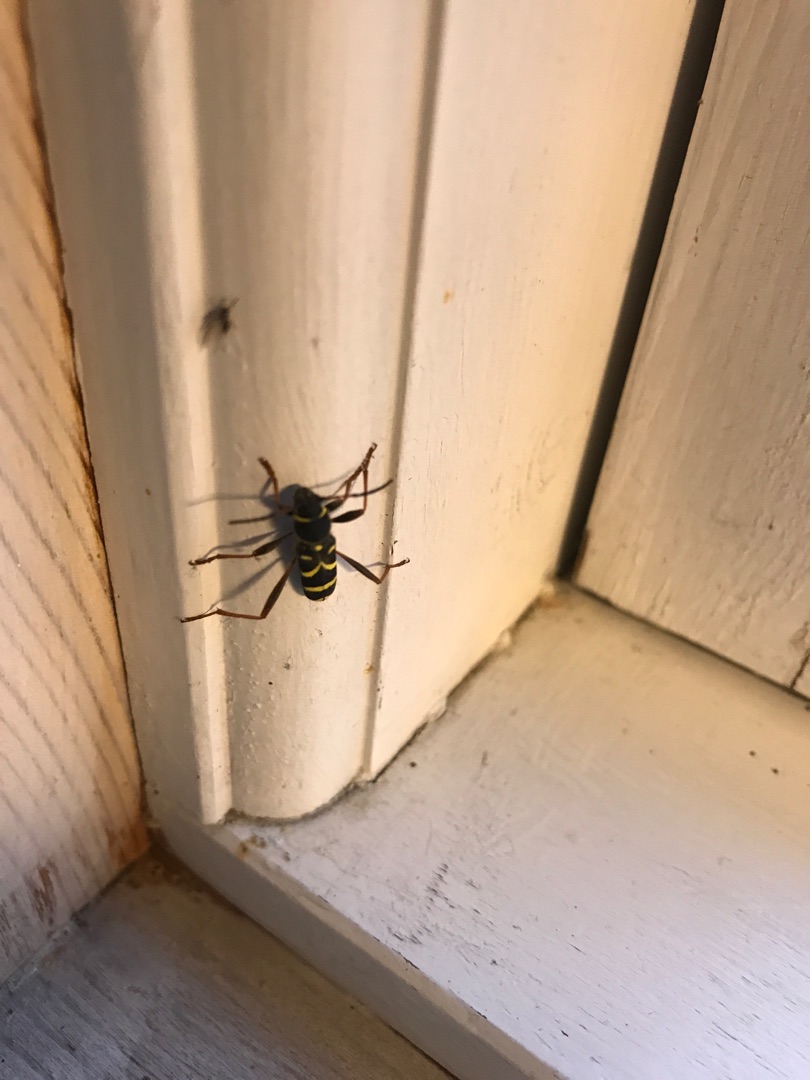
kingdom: Animalia
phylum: Arthropoda
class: Insecta
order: Coleoptera
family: Cerambycidae
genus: Clytus
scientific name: Clytus arietis
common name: Lille hvepsebuk
